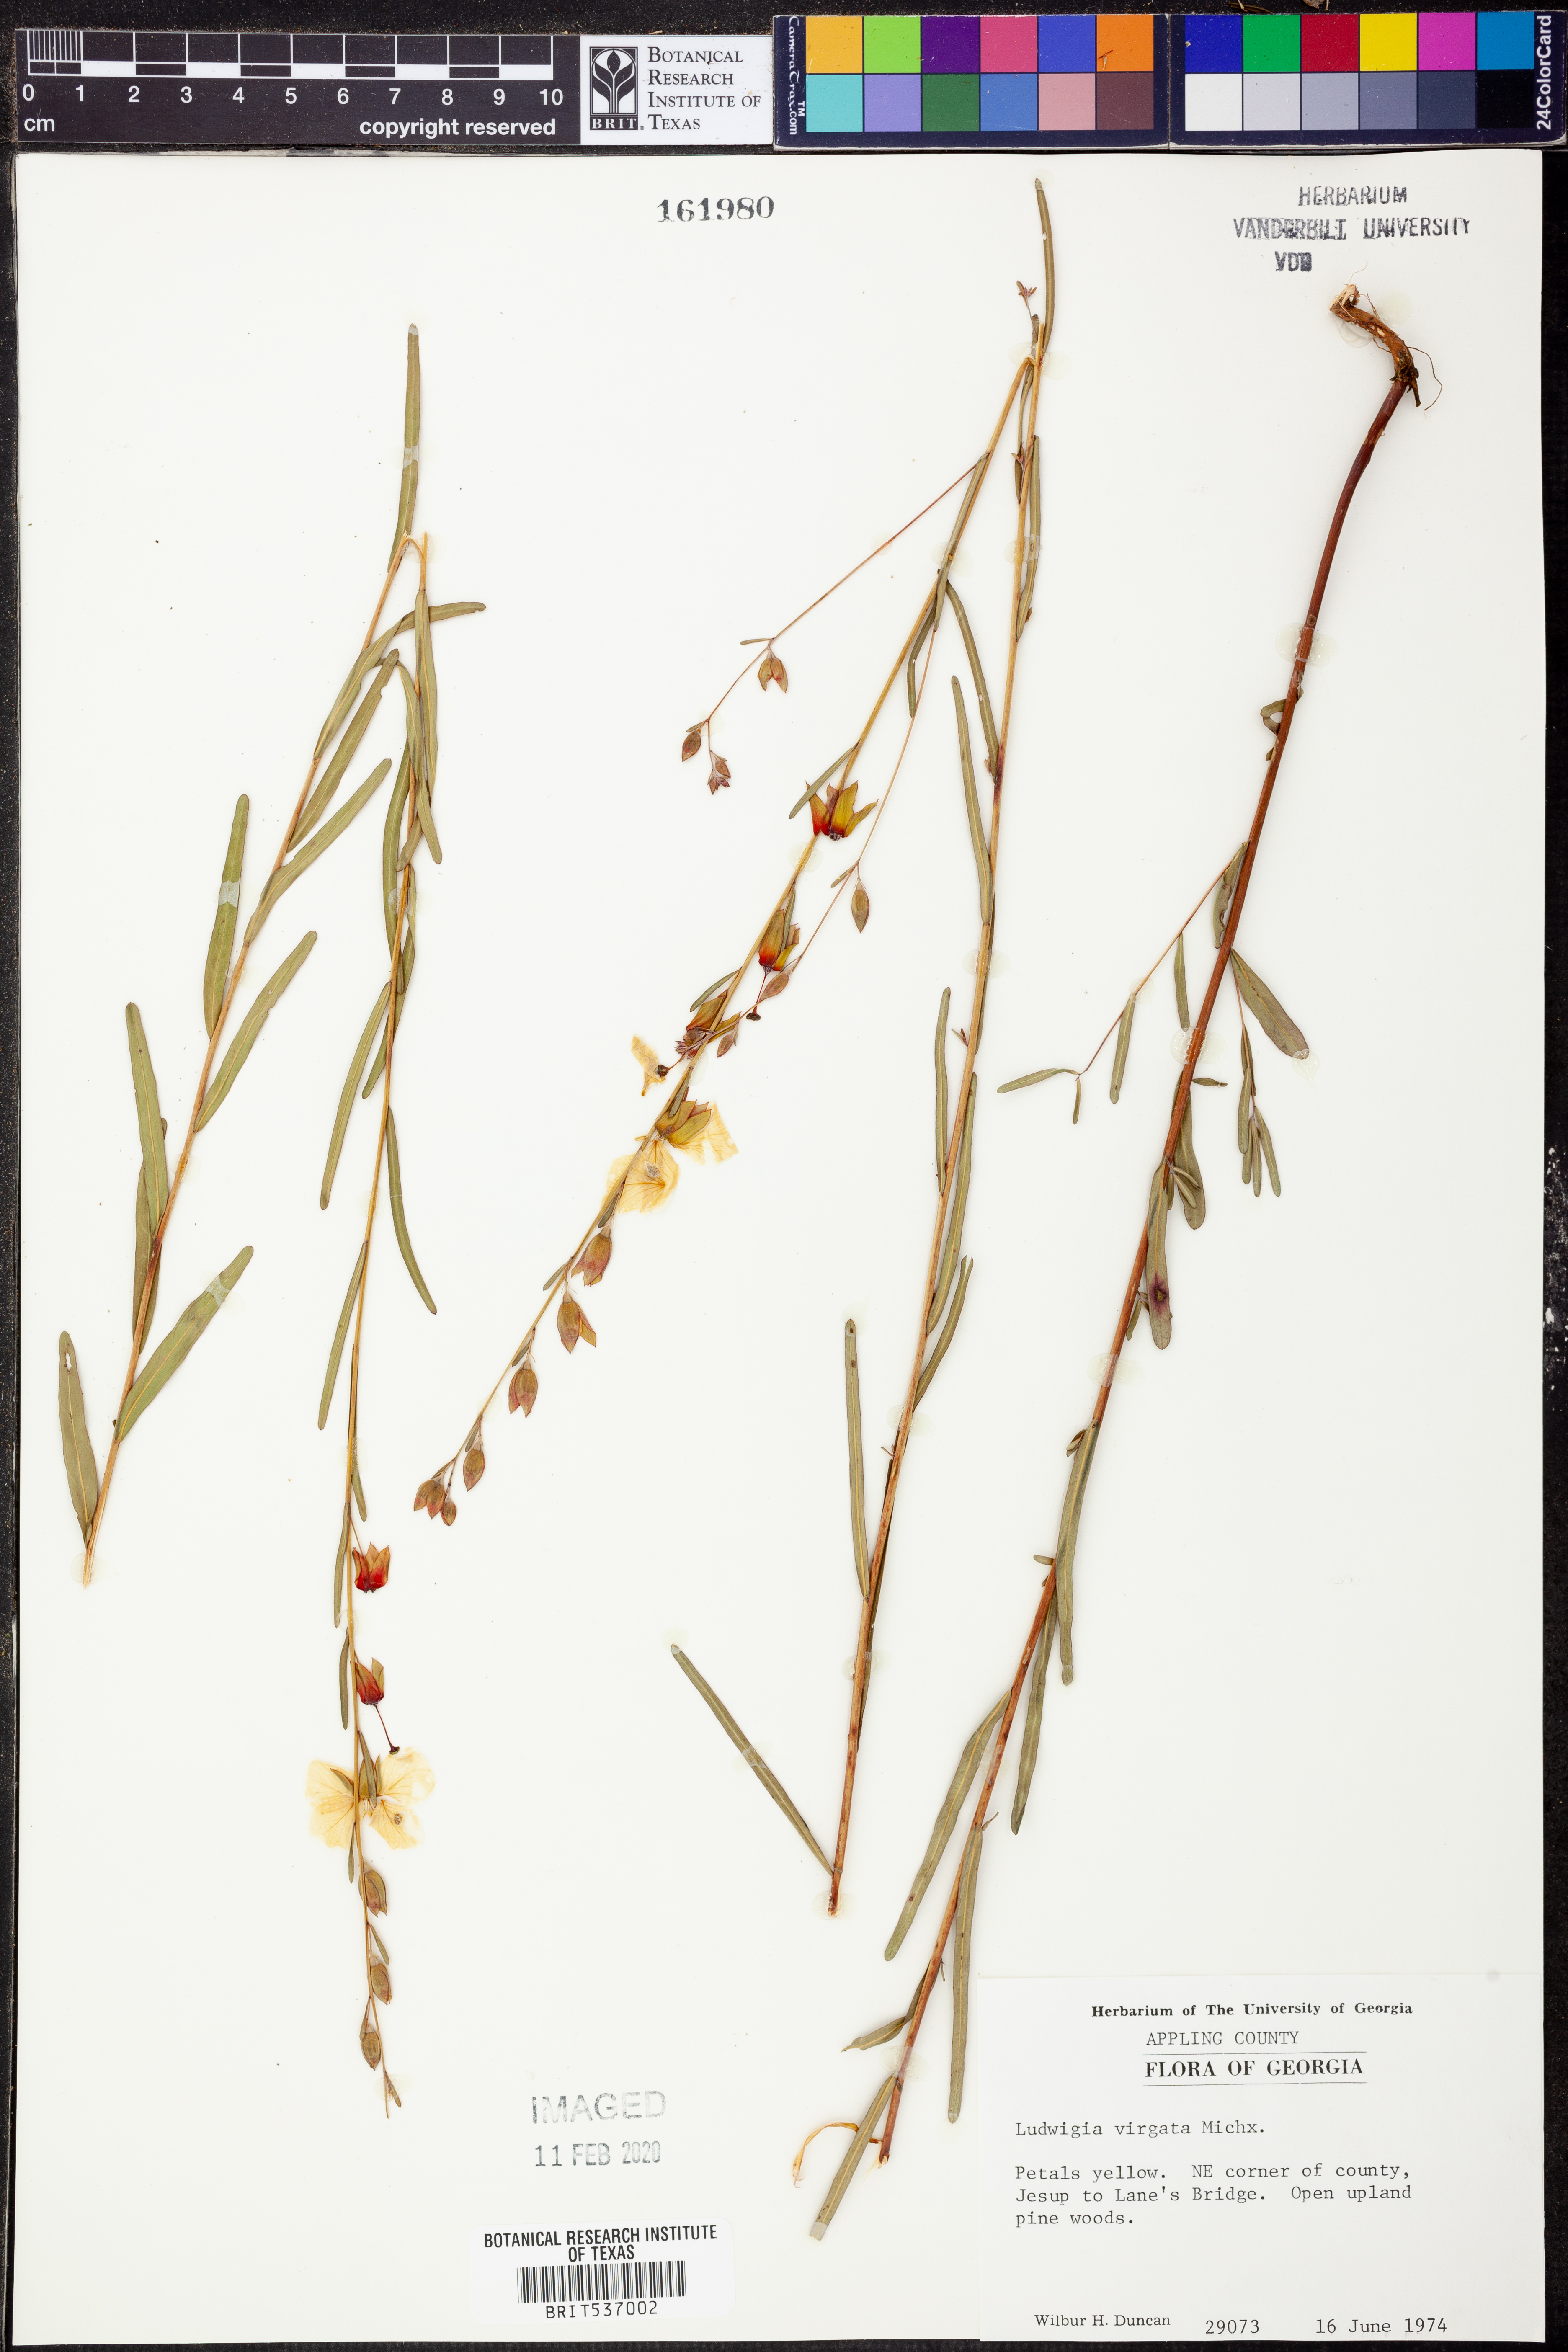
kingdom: Plantae
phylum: Tracheophyta
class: Magnoliopsida
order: Myrtales
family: Onagraceae
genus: Ludwigia
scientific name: Ludwigia virgata
